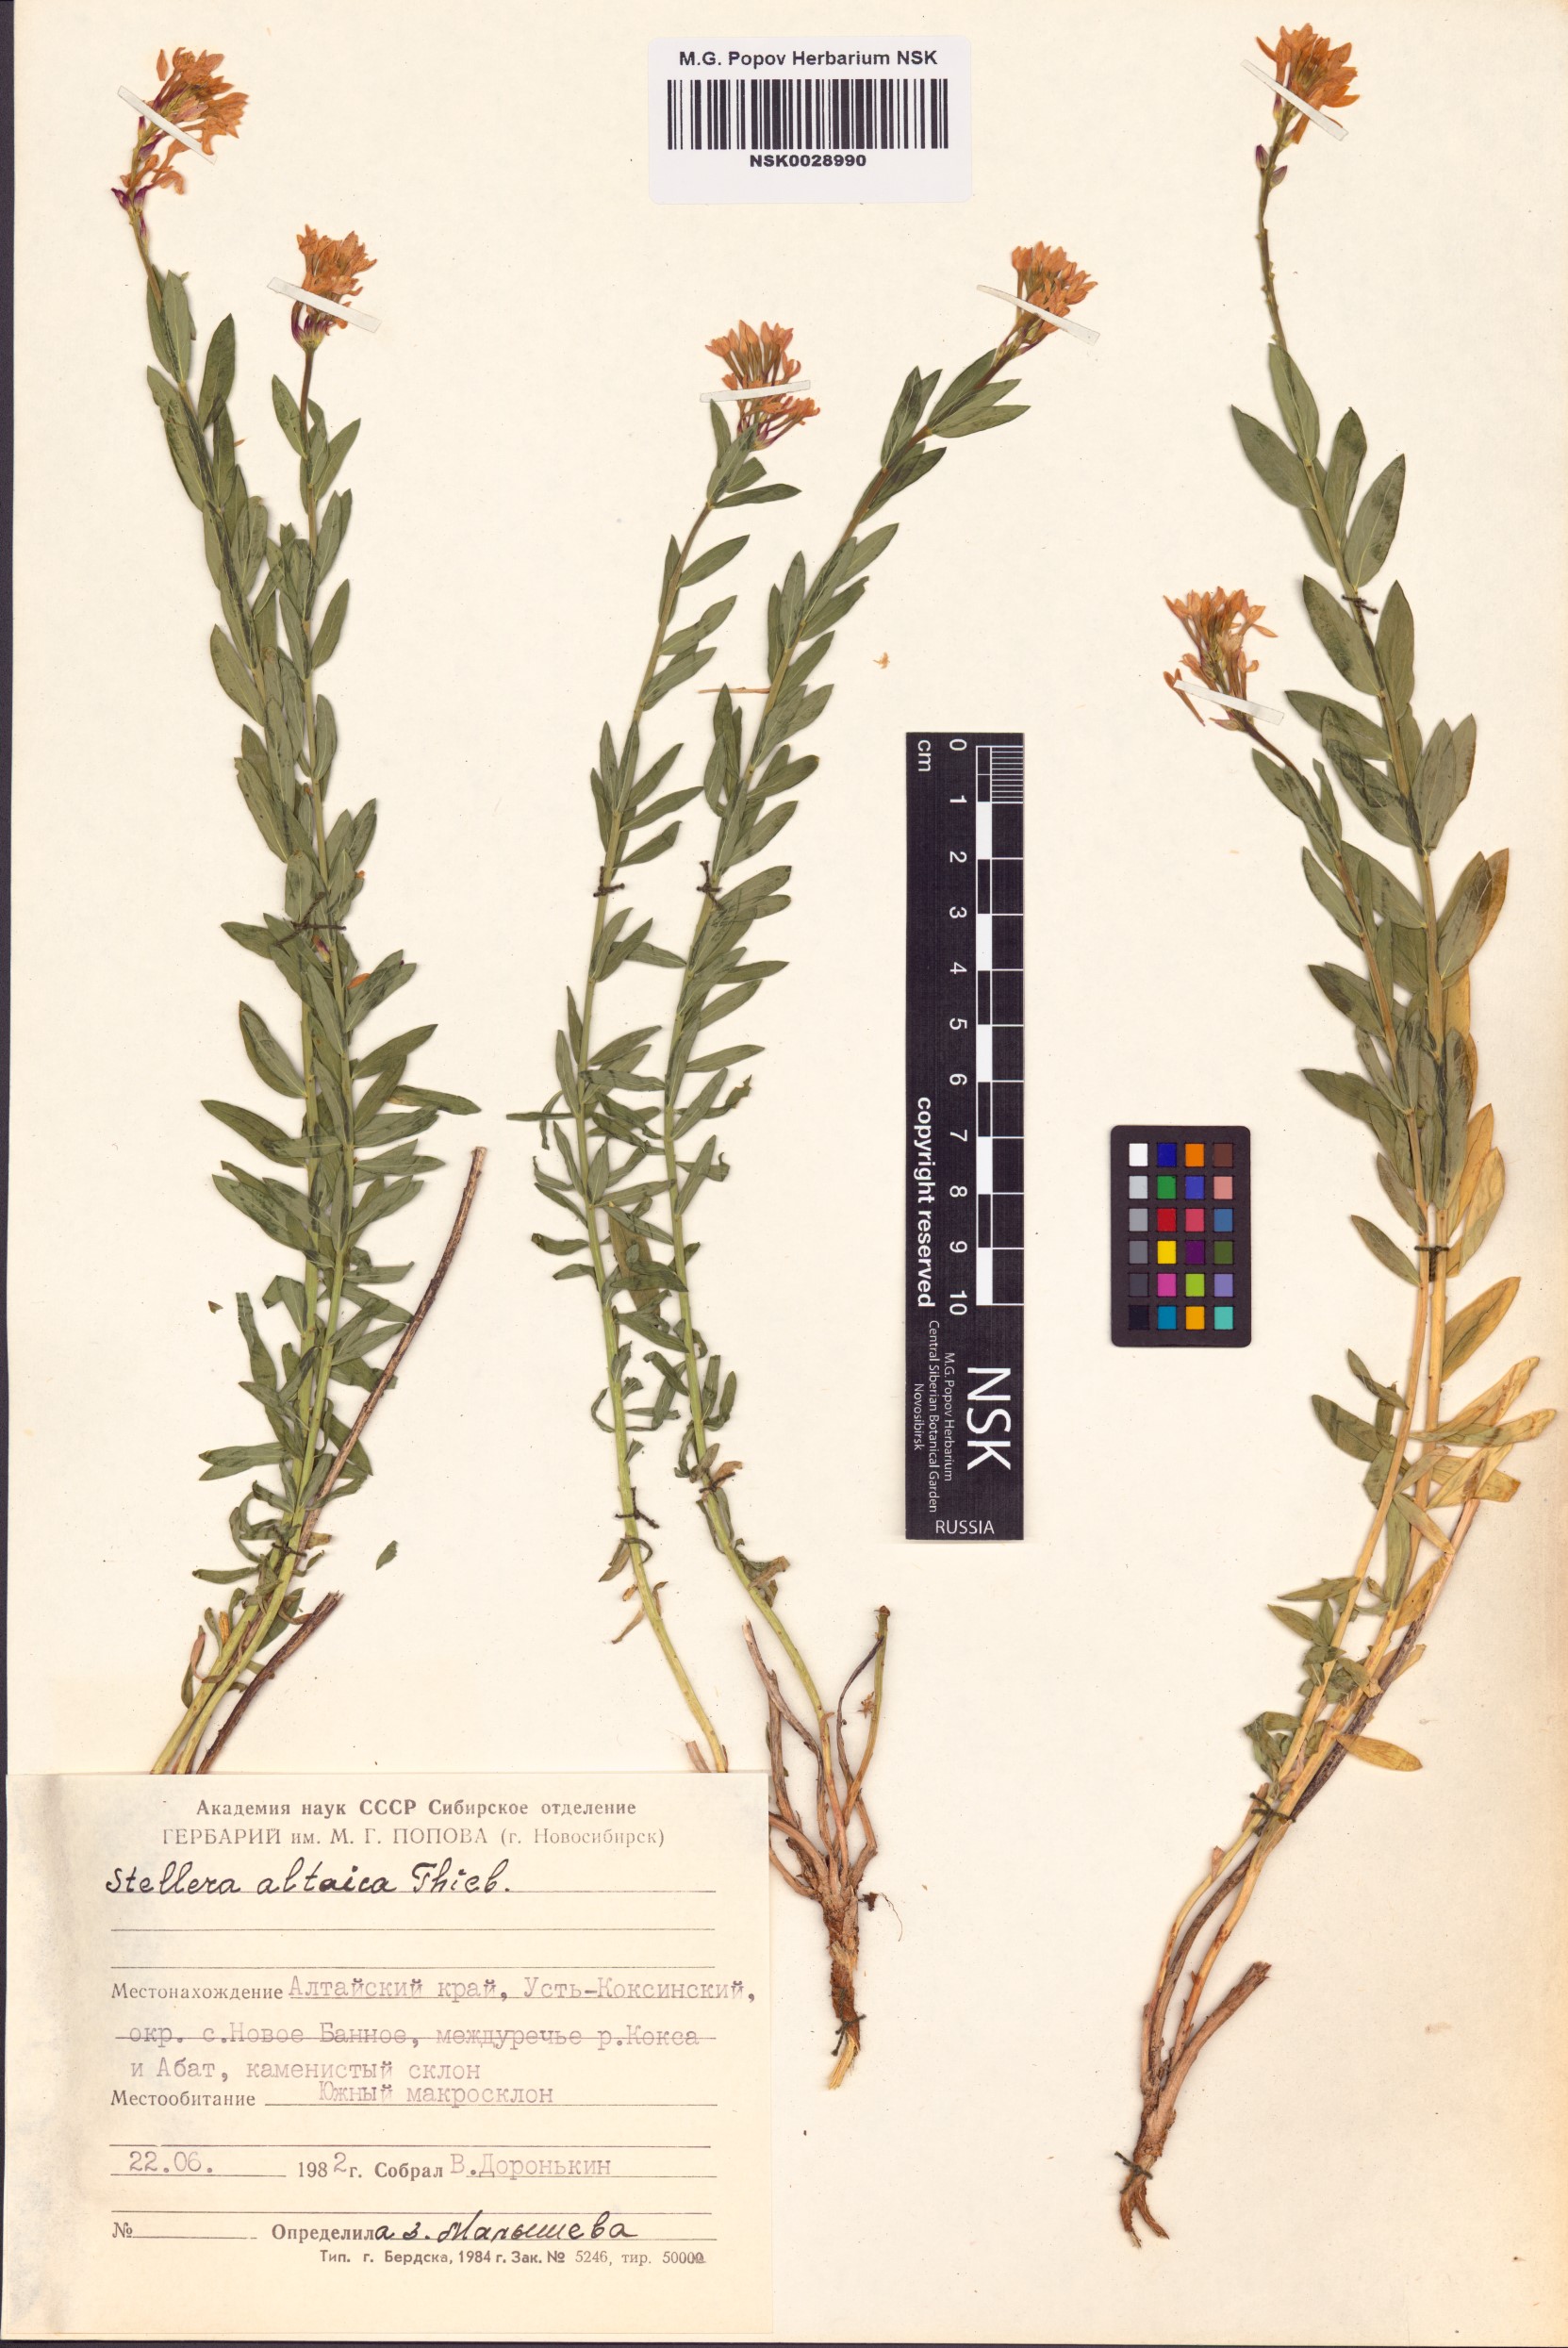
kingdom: Plantae
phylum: Tracheophyta
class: Magnoliopsida
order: Malvales
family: Thymelaeaceae
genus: Diarthron
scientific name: Diarthron altaicum
